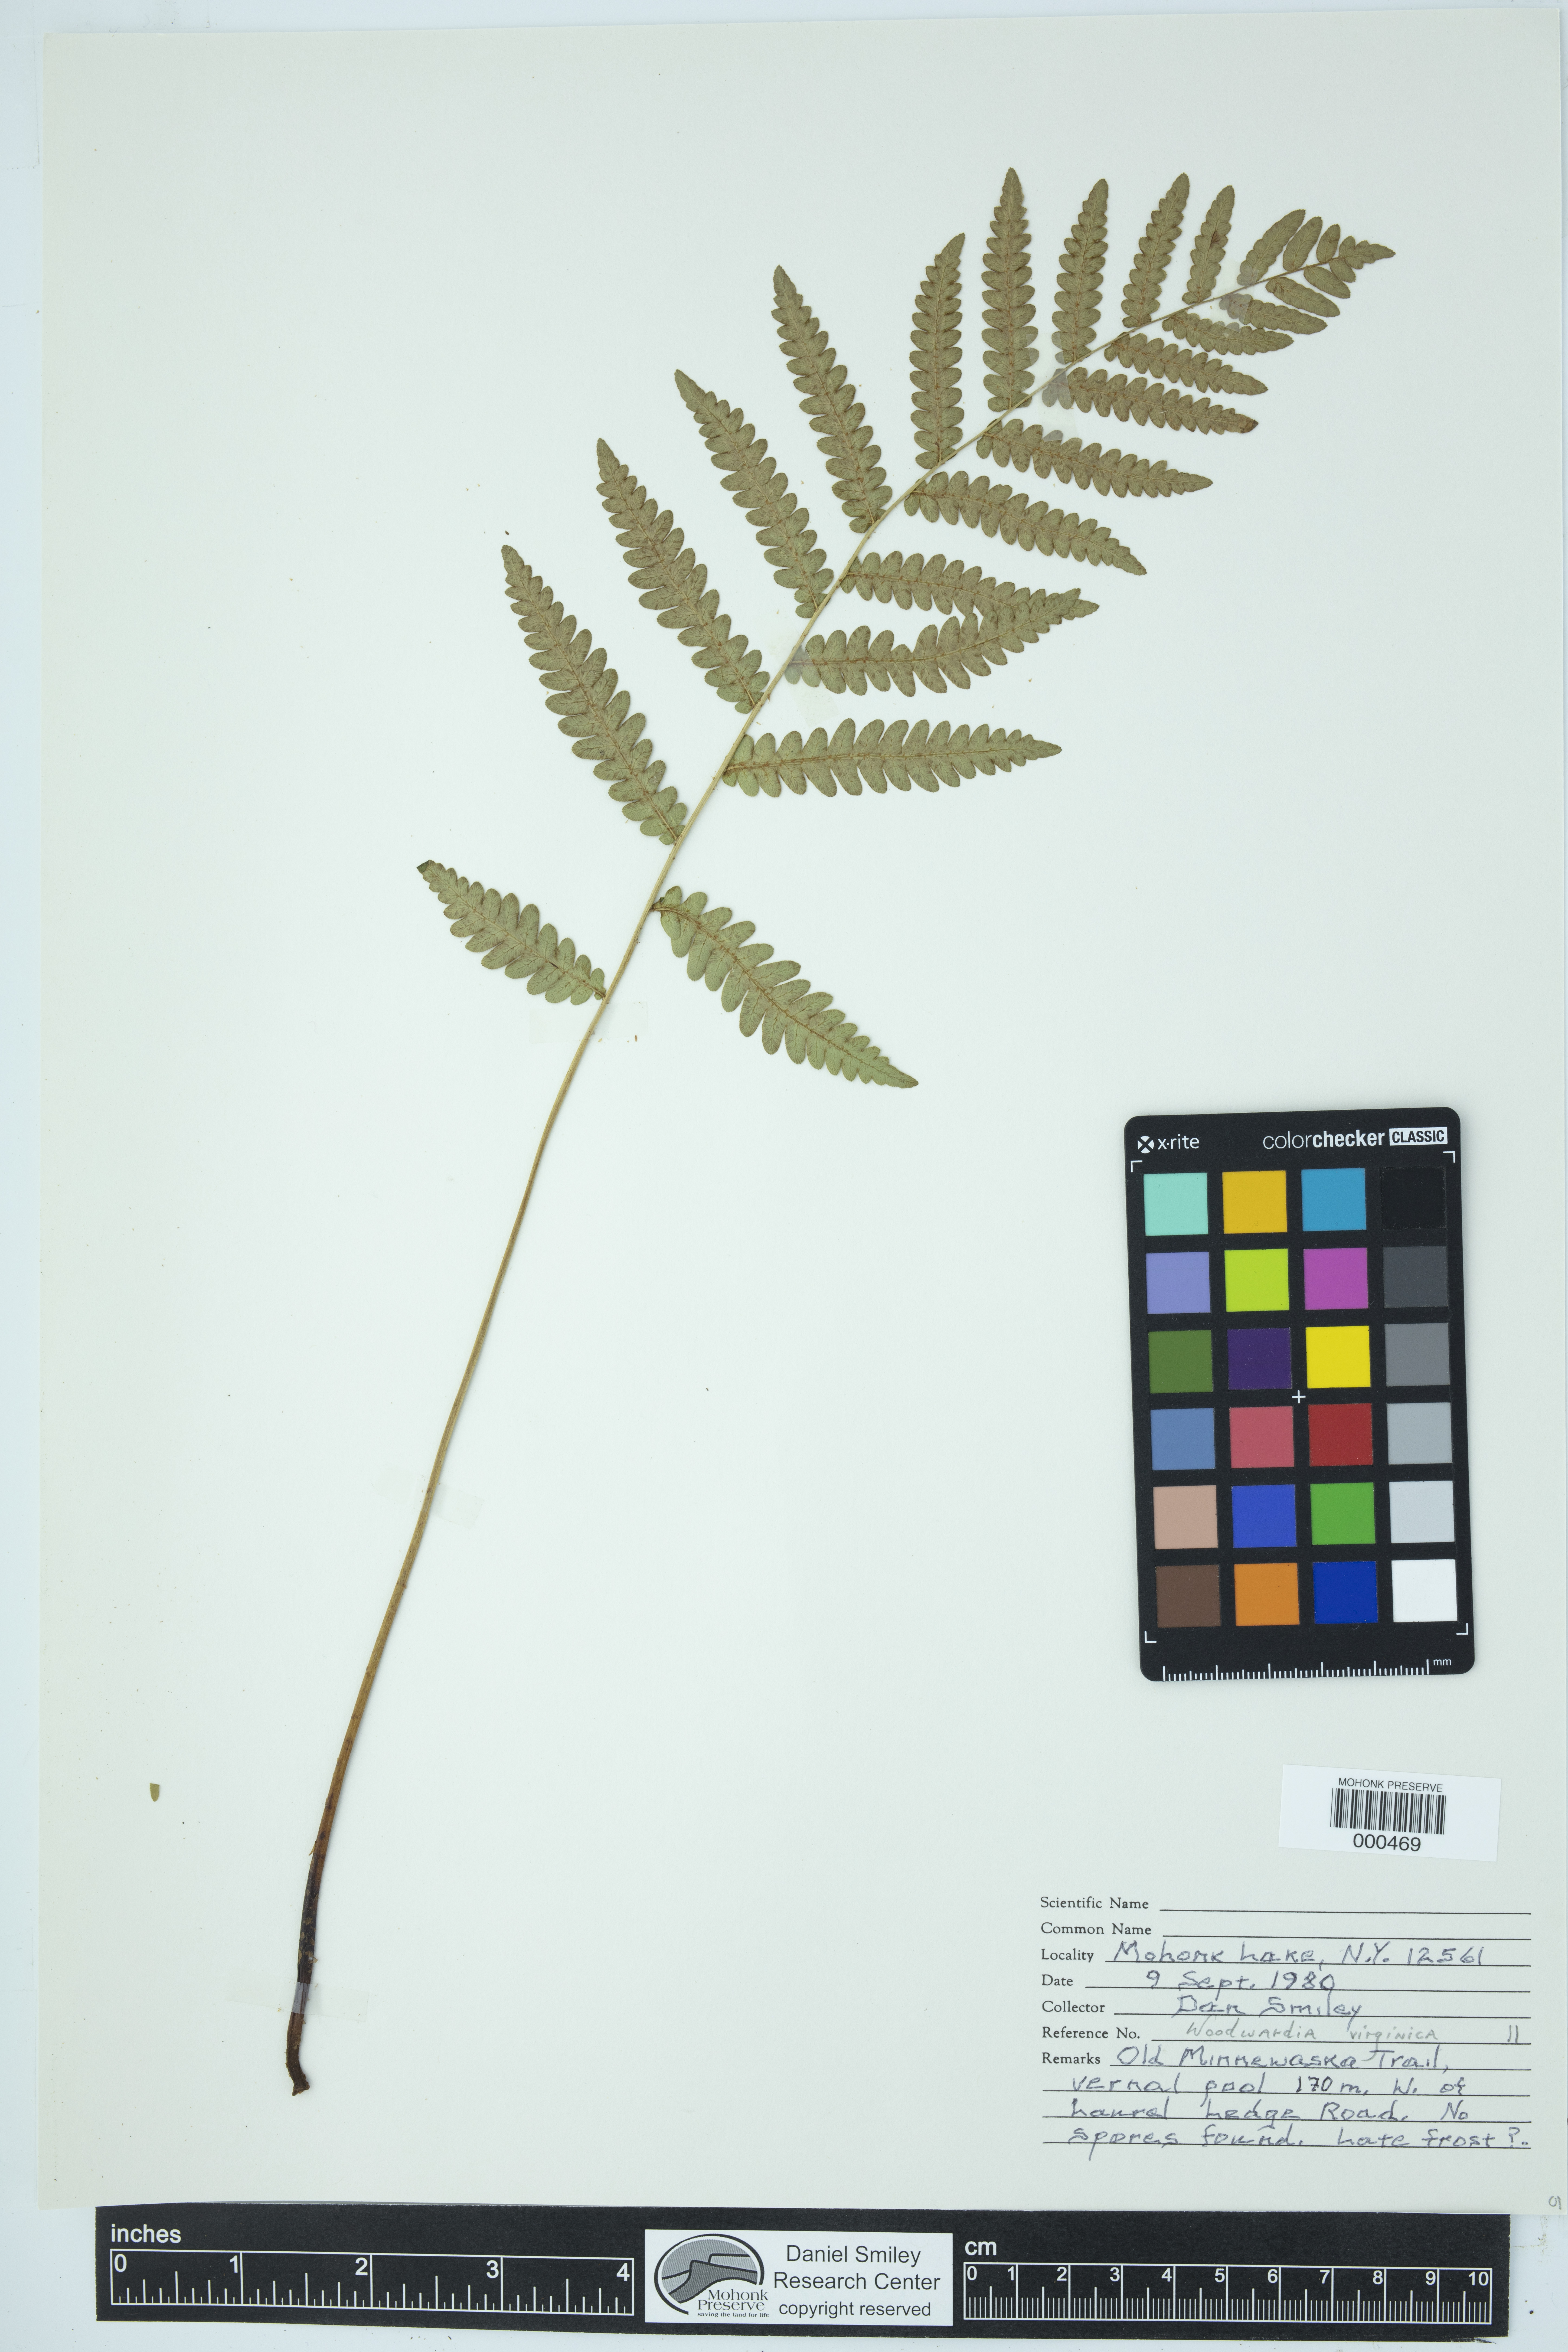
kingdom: Plantae
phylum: Tracheophyta
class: Polypodiopsida
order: Polypodiales
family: Blechnaceae
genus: Anchistea
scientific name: Anchistea virginica
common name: Virginia chain fern
